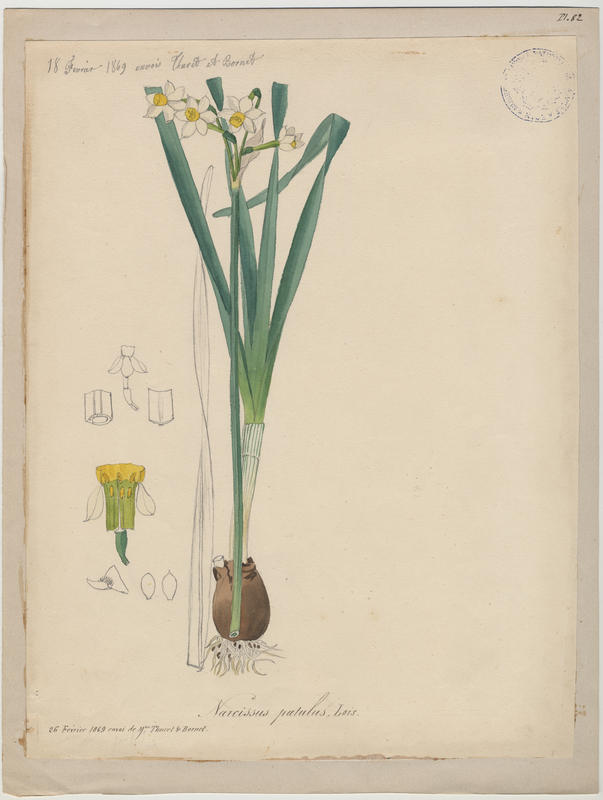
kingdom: Plantae
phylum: Tracheophyta
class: Liliopsida
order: Asparagales
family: Amaryllidaceae
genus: Narcissus
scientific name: Narcissus tazetta
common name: Bunch-flowered daffodil
